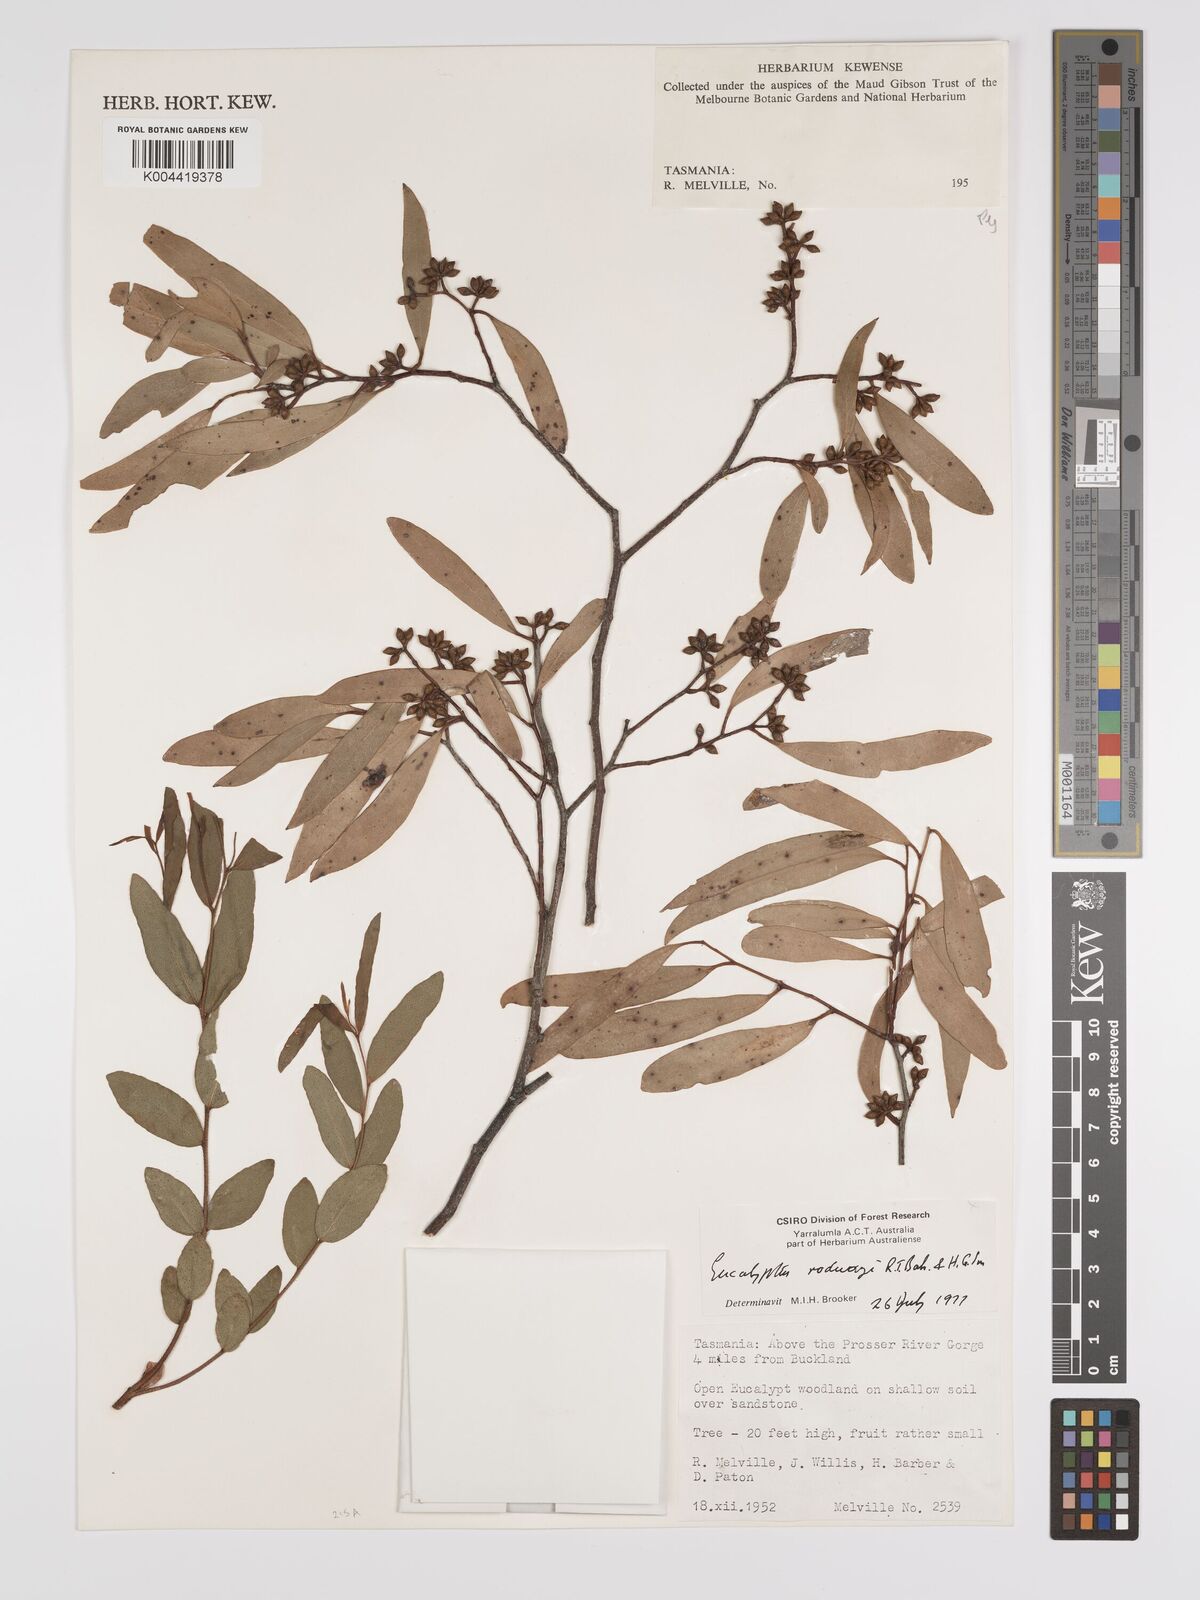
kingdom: Plantae
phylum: Tracheophyta
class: Magnoliopsida
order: Myrtales
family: Myrtaceae
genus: Eucalyptus
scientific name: Eucalyptus rodwayi
